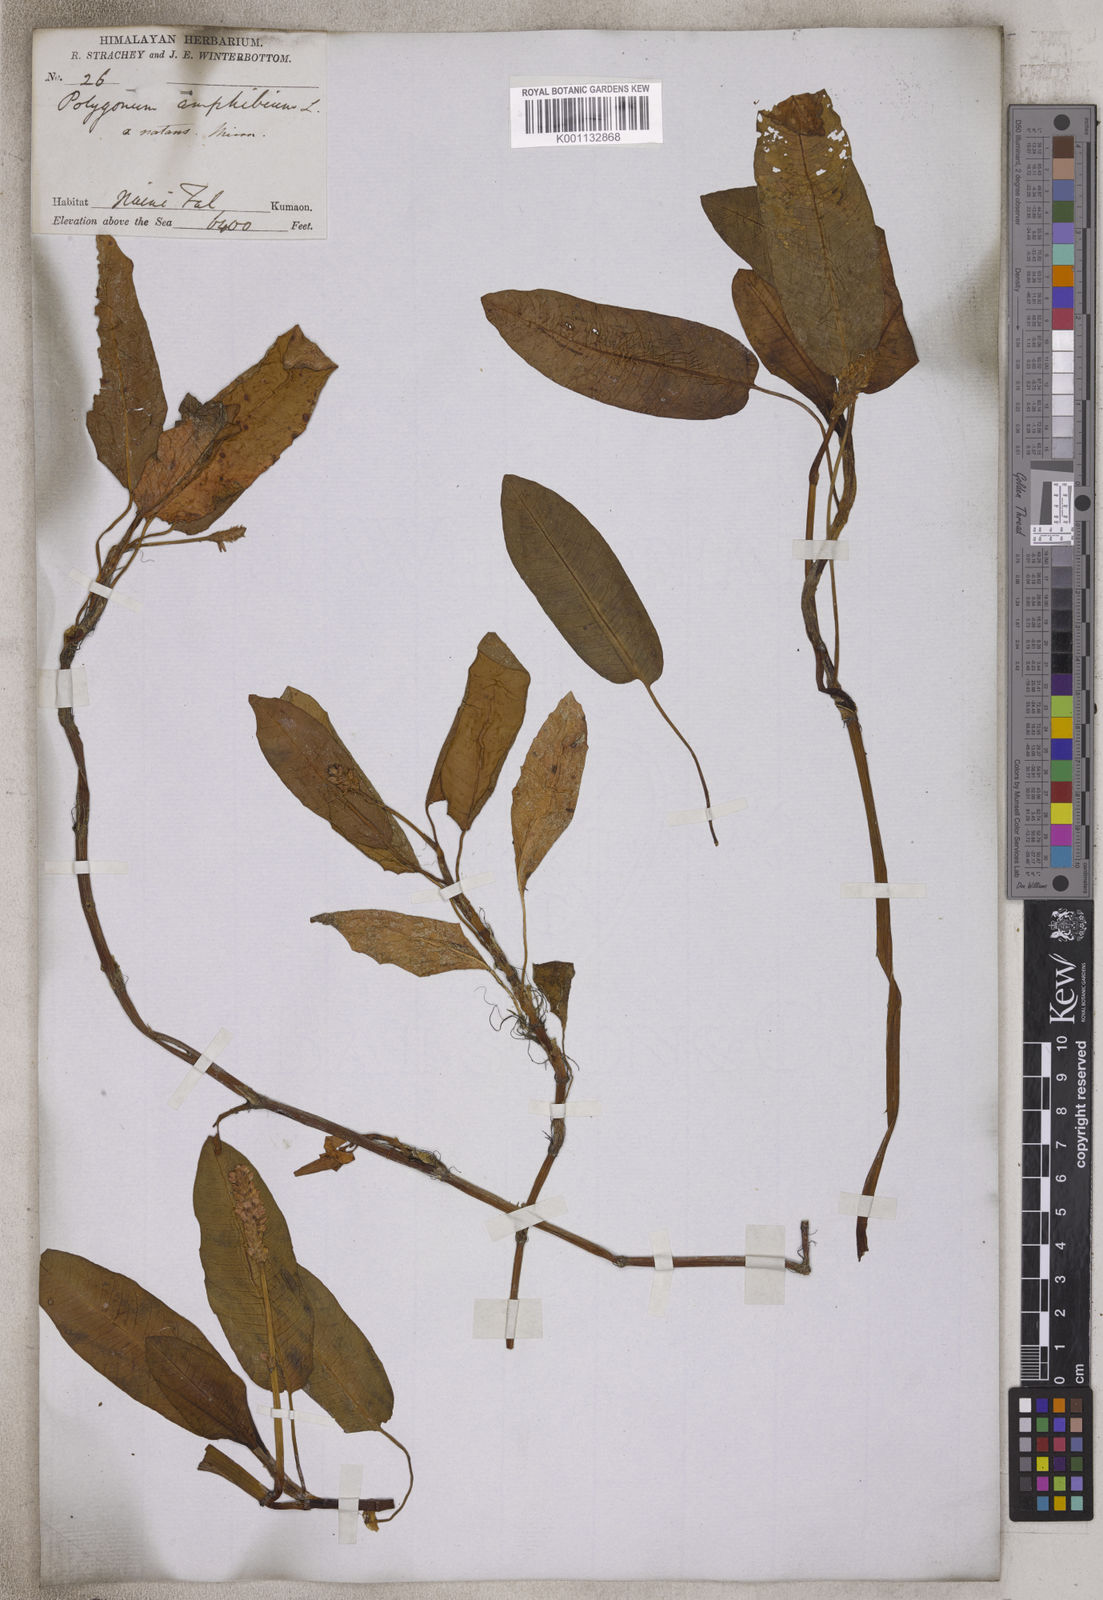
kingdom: Plantae
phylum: Tracheophyta
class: Magnoliopsida
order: Caryophyllales
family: Polygonaceae
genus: Persicaria
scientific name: Persicaria amphibia
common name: Amphibious bistort
